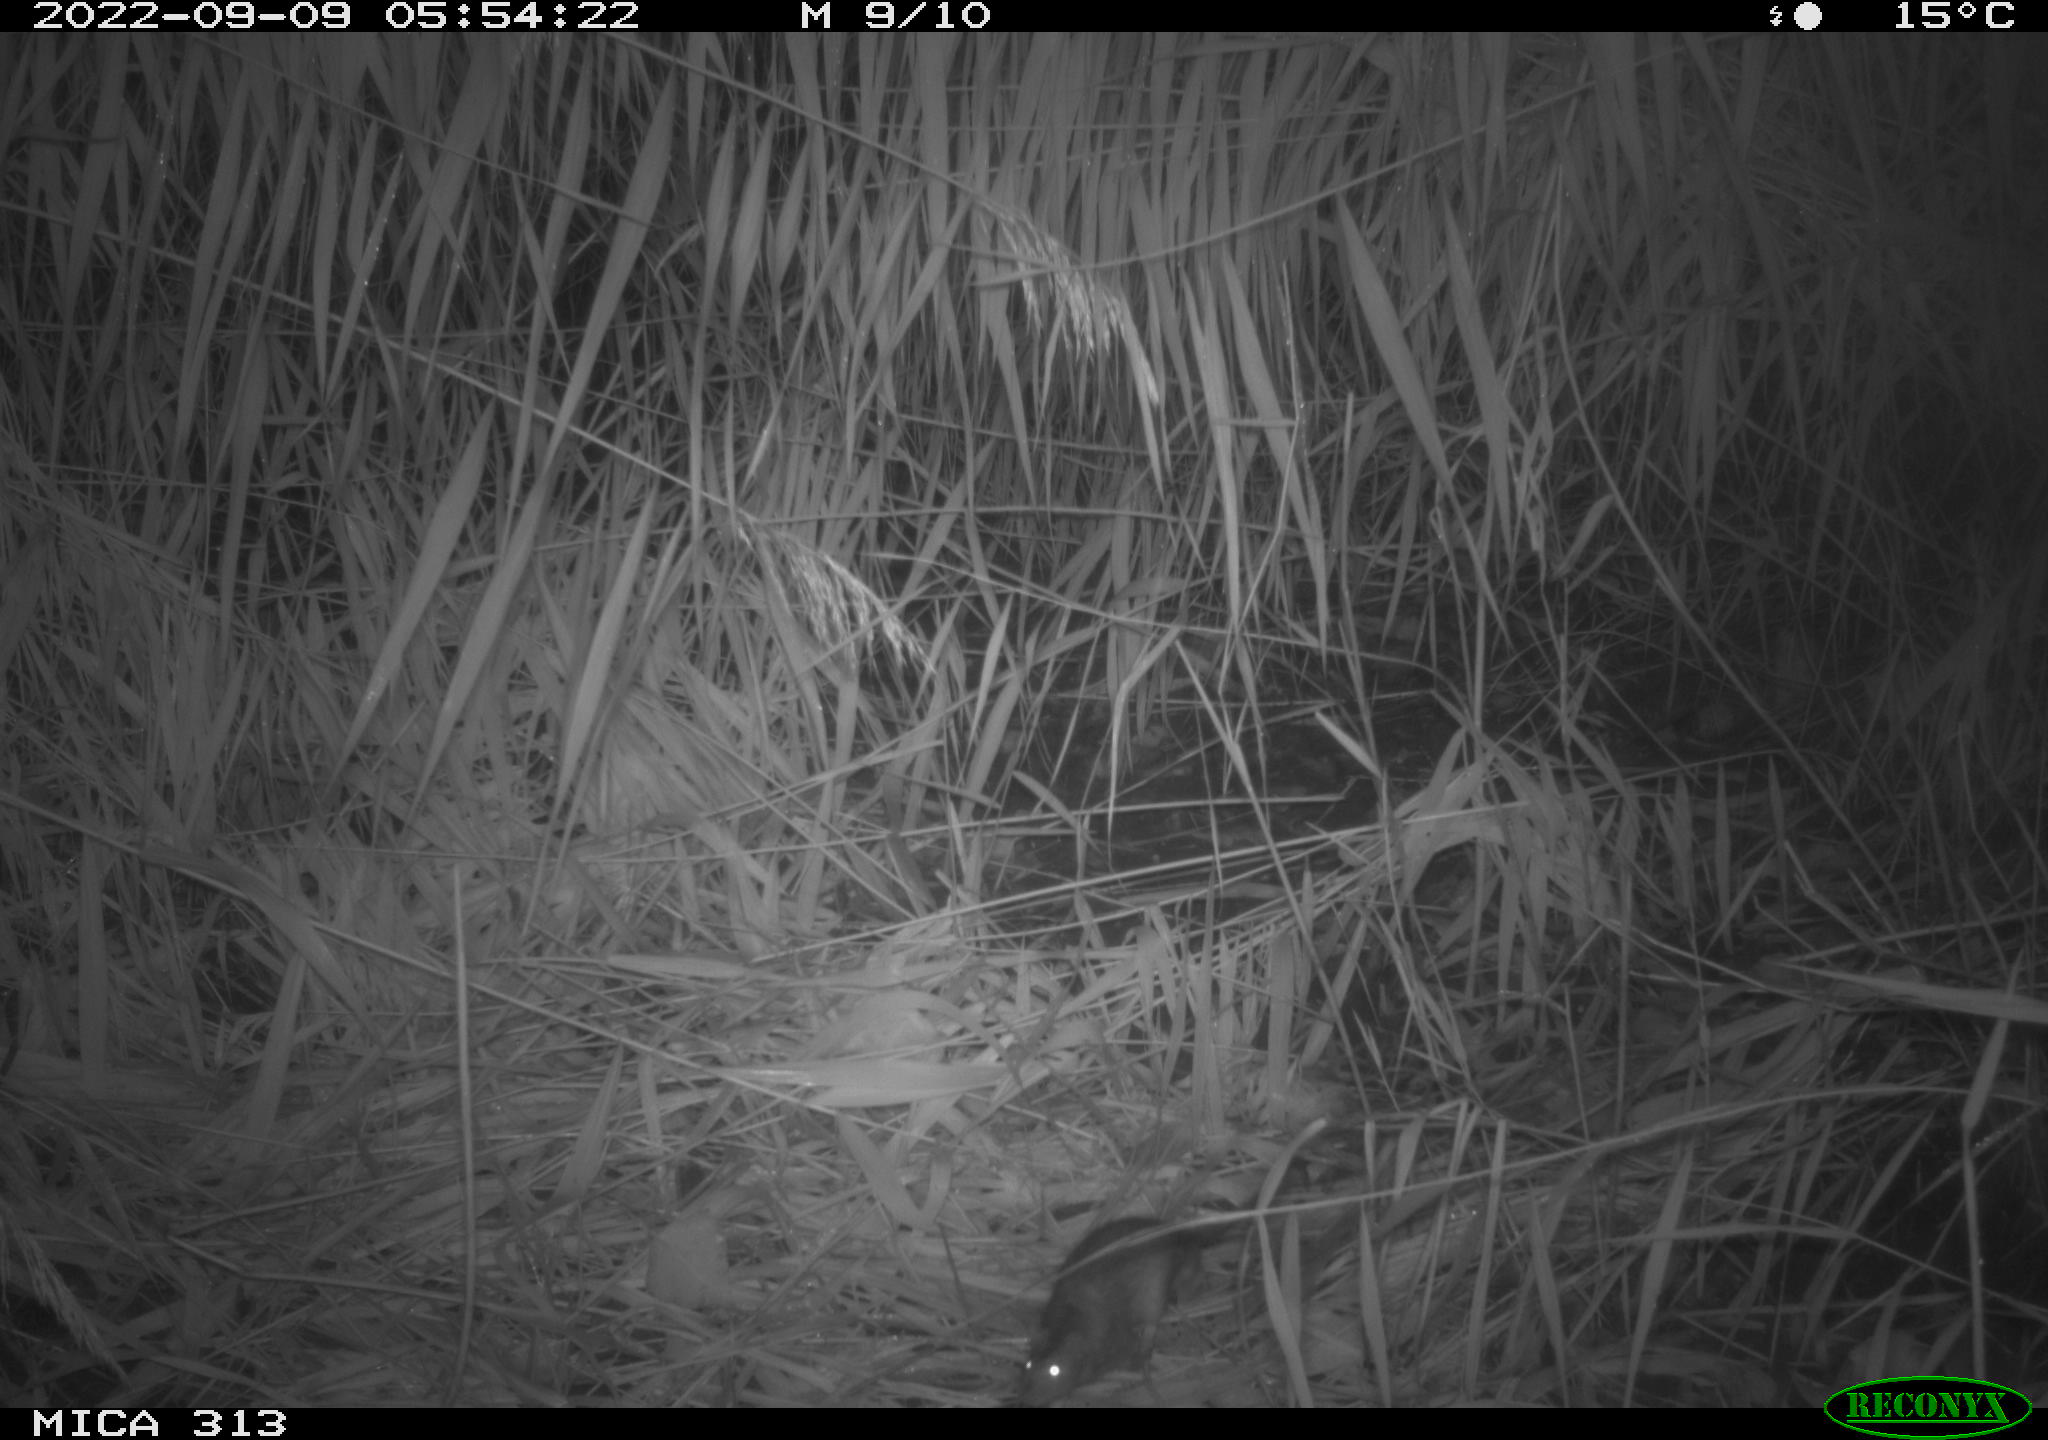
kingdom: Animalia
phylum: Chordata
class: Mammalia
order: Rodentia
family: Muridae
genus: Rattus
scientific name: Rattus norvegicus
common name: Brown rat
